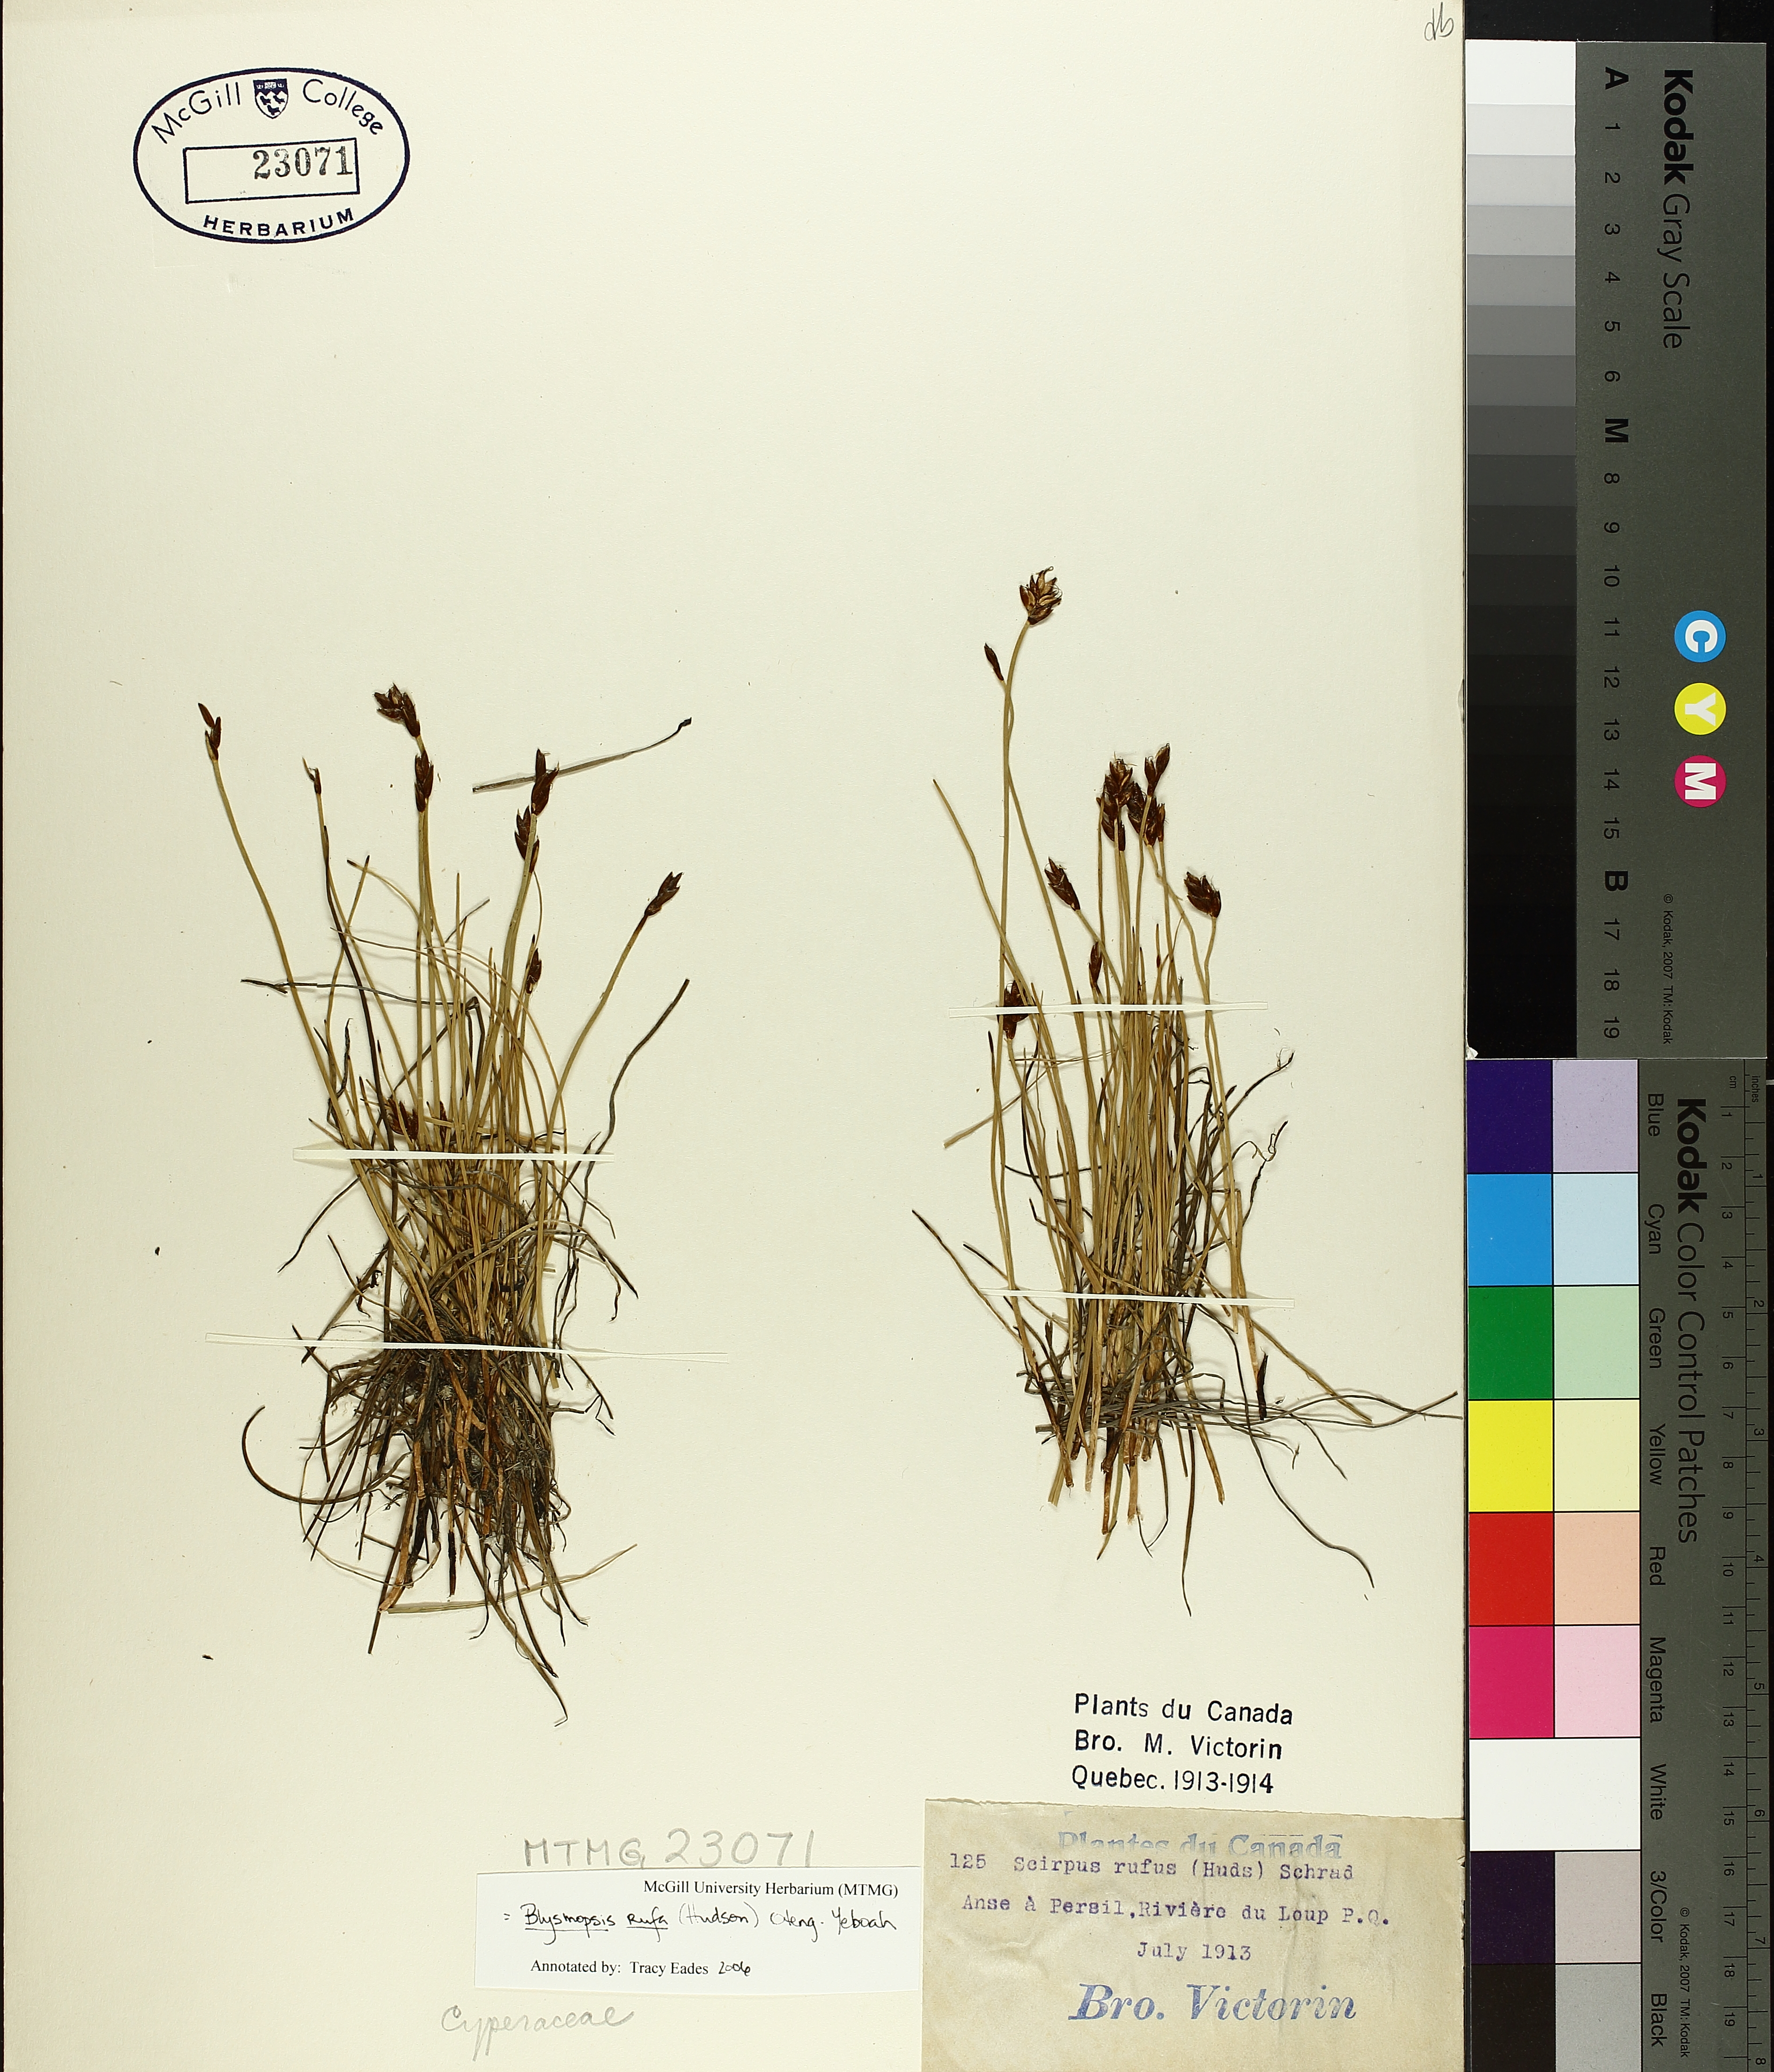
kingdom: Plantae
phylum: Tracheophyta
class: Liliopsida
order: Poales
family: Cyperaceae
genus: Blysmus
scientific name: Blysmus rufus
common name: Saltmarsh flat-sedge
